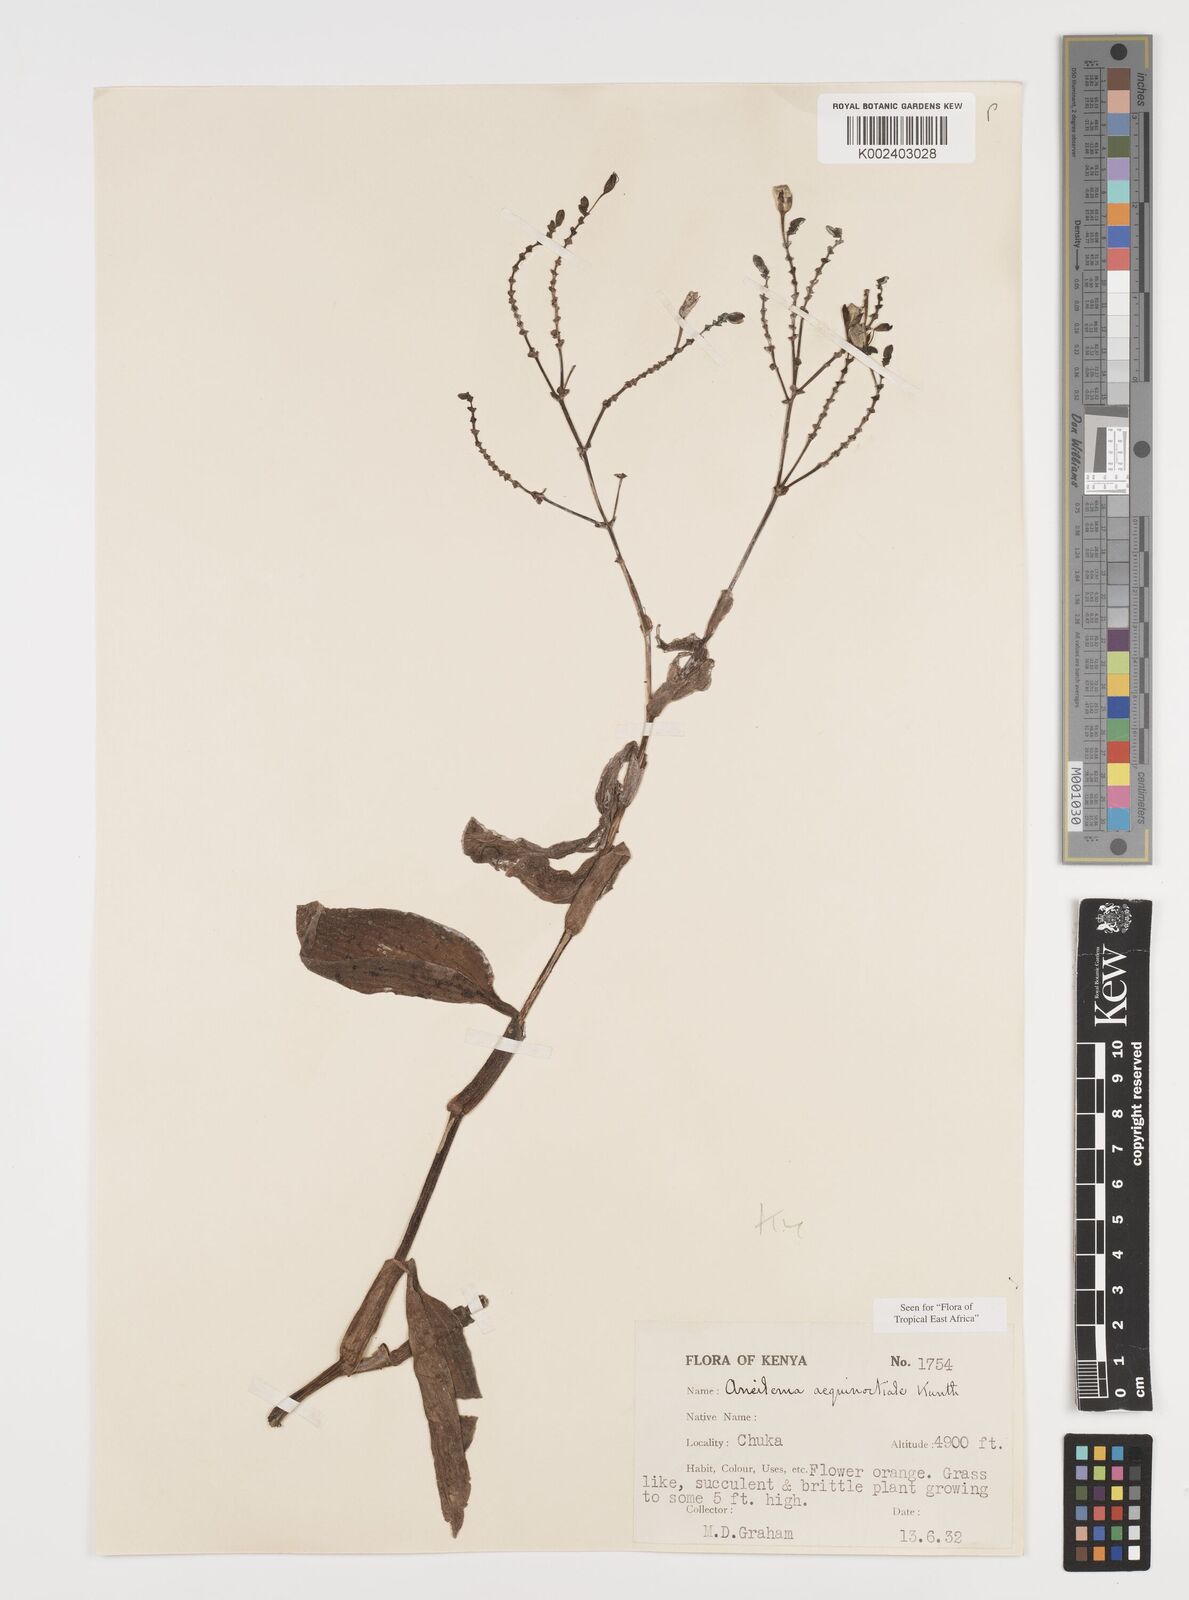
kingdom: Plantae
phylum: Tracheophyta
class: Liliopsida
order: Commelinales
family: Commelinaceae
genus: Aneilema
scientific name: Aneilema aequinoctiale
